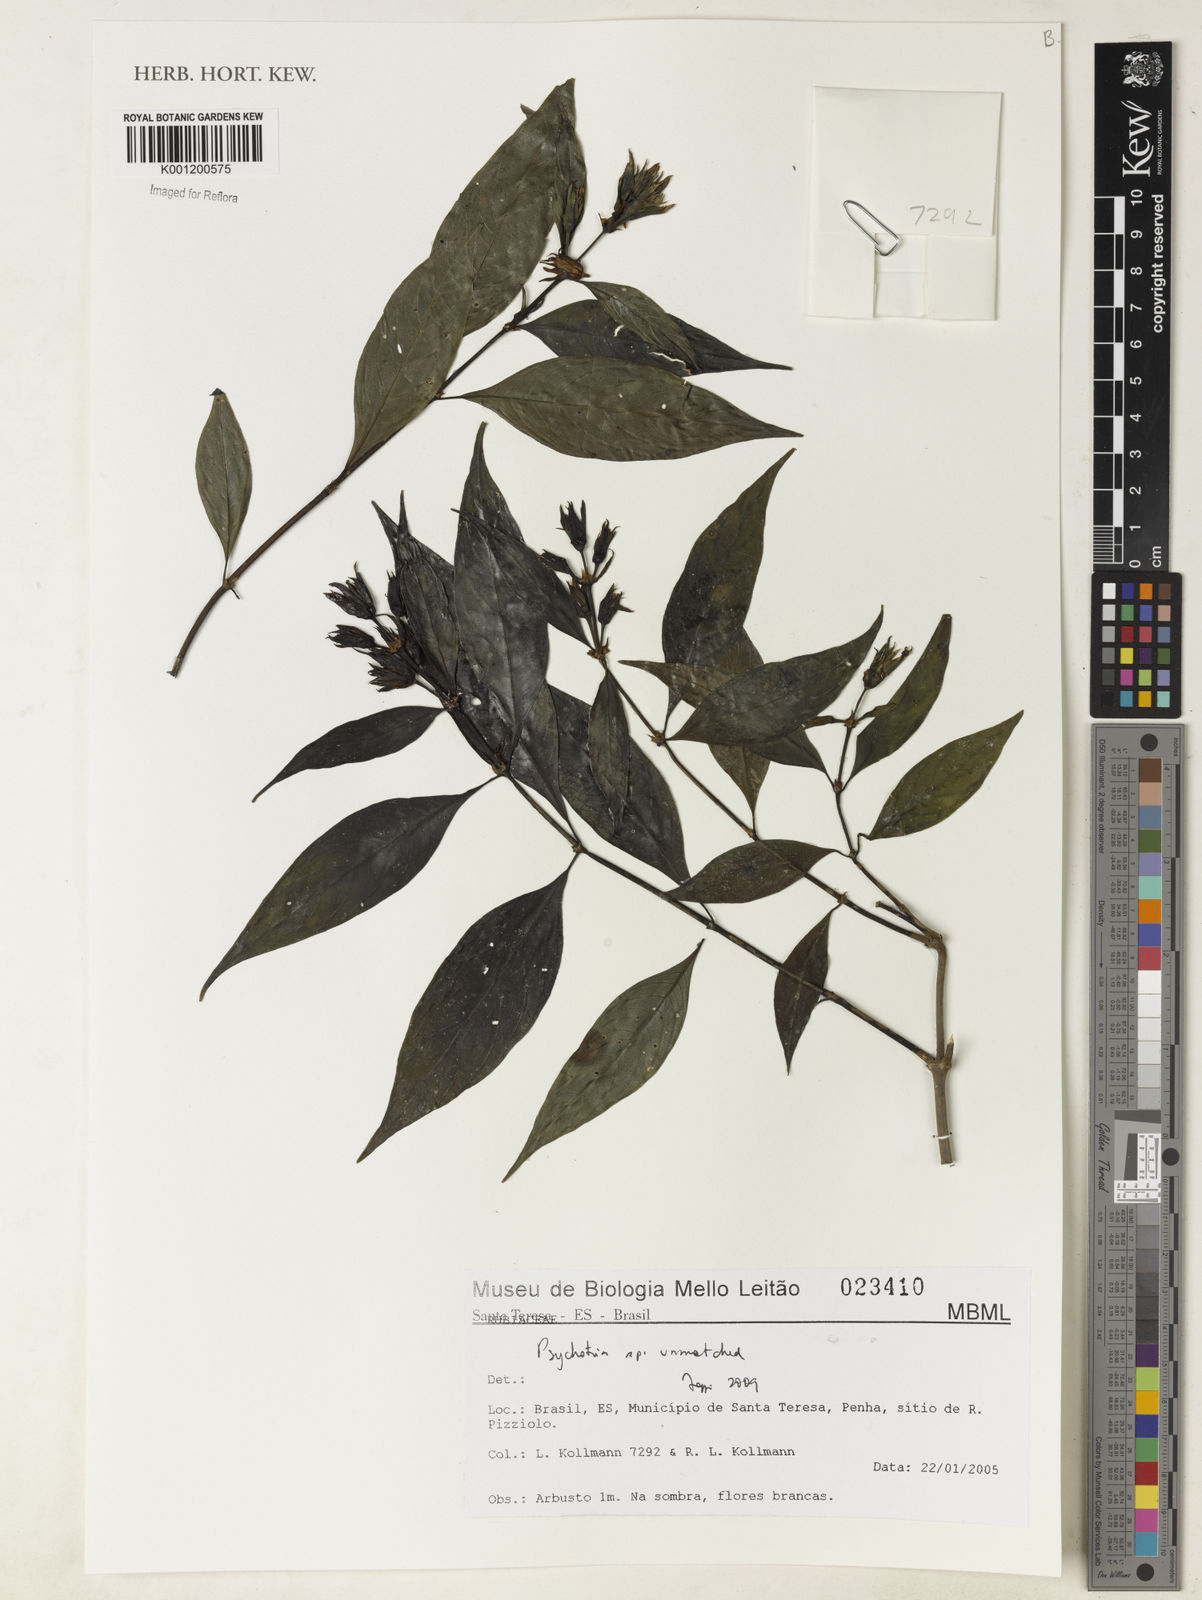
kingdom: Plantae
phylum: Tracheophyta
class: Magnoliopsida
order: Gentianales
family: Rubiaceae
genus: Psychotria
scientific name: Psychotria
